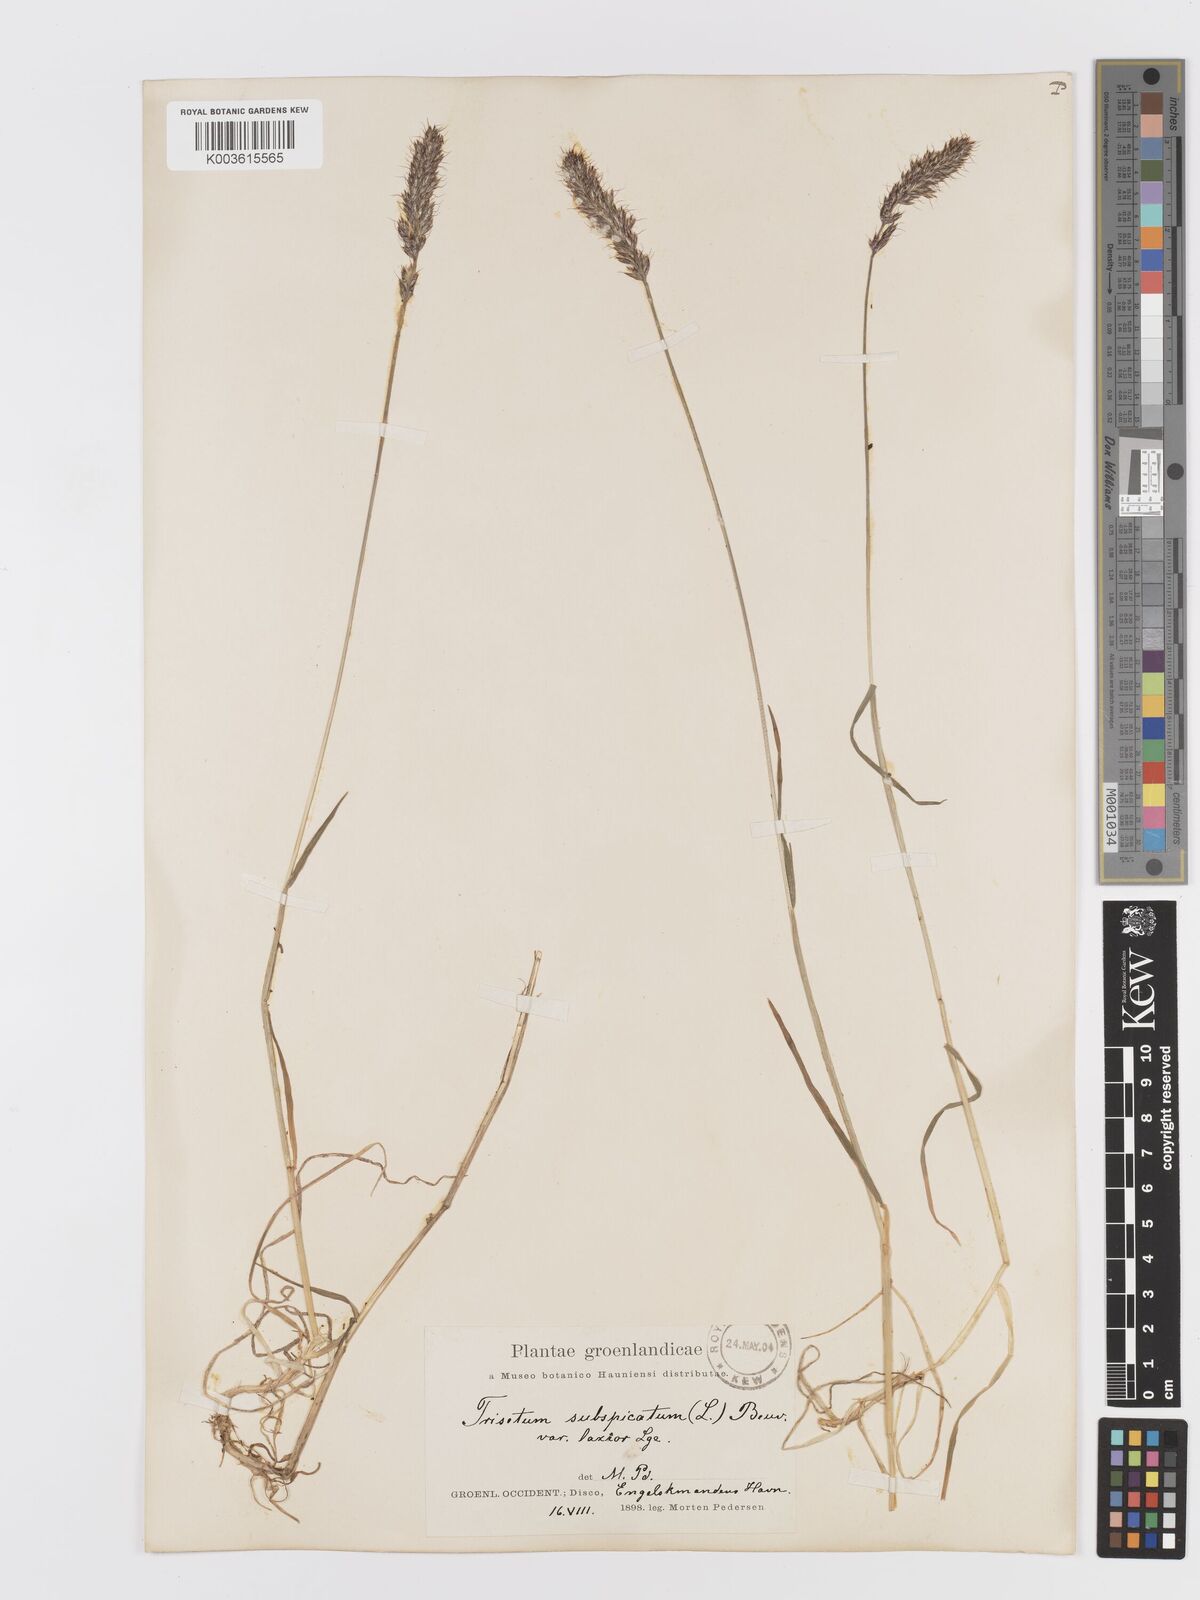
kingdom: Plantae
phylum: Tracheophyta
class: Liliopsida
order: Poales
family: Poaceae
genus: Koeleria
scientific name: Koeleria spicata
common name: Mountain trisetum
